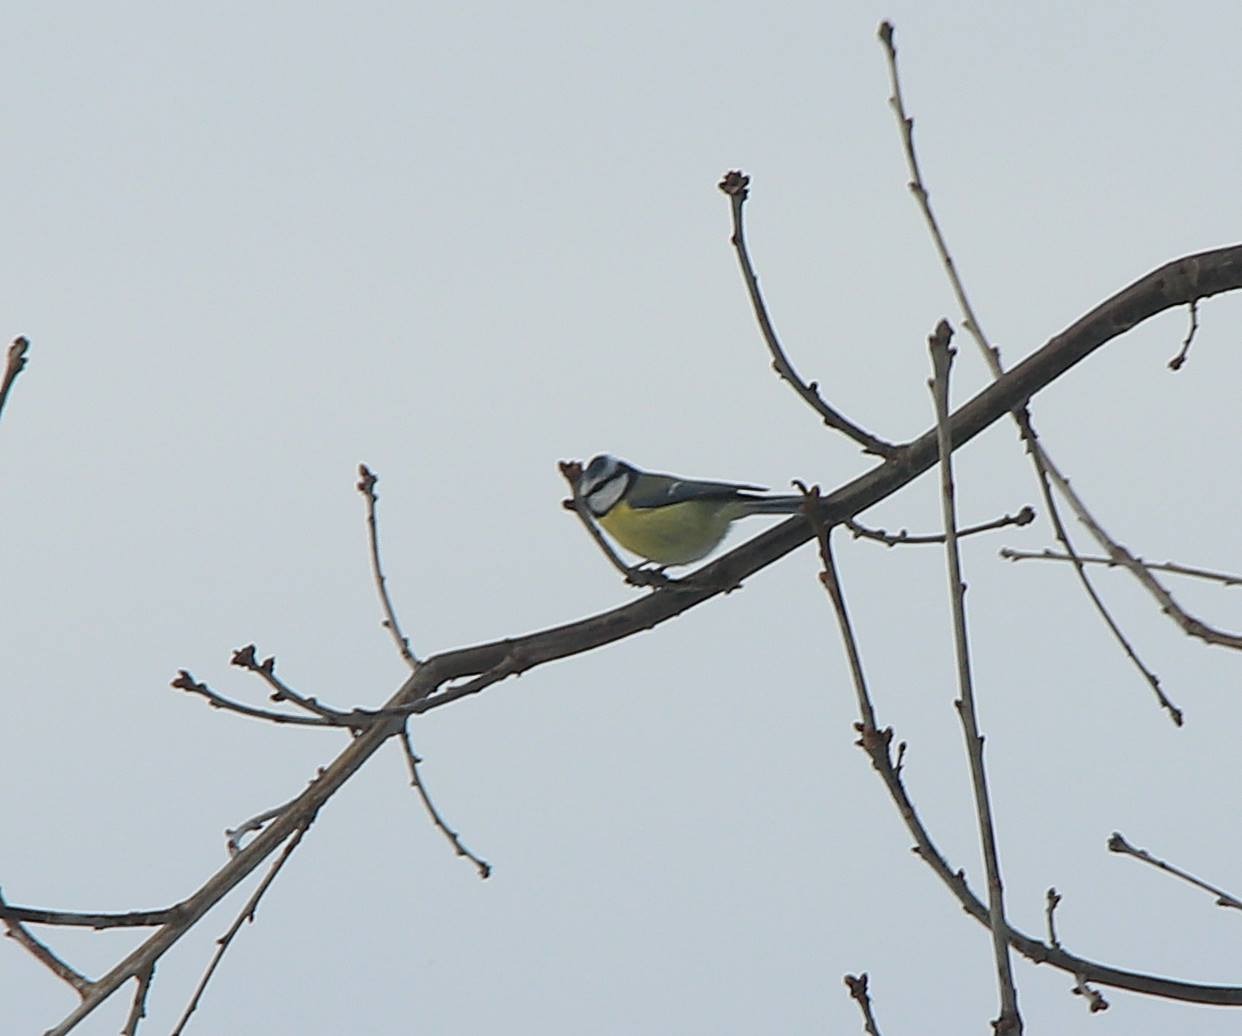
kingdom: Animalia
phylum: Chordata
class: Aves
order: Passeriformes
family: Paridae
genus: Cyanistes
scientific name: Cyanistes caeruleus
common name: Blåmejse
